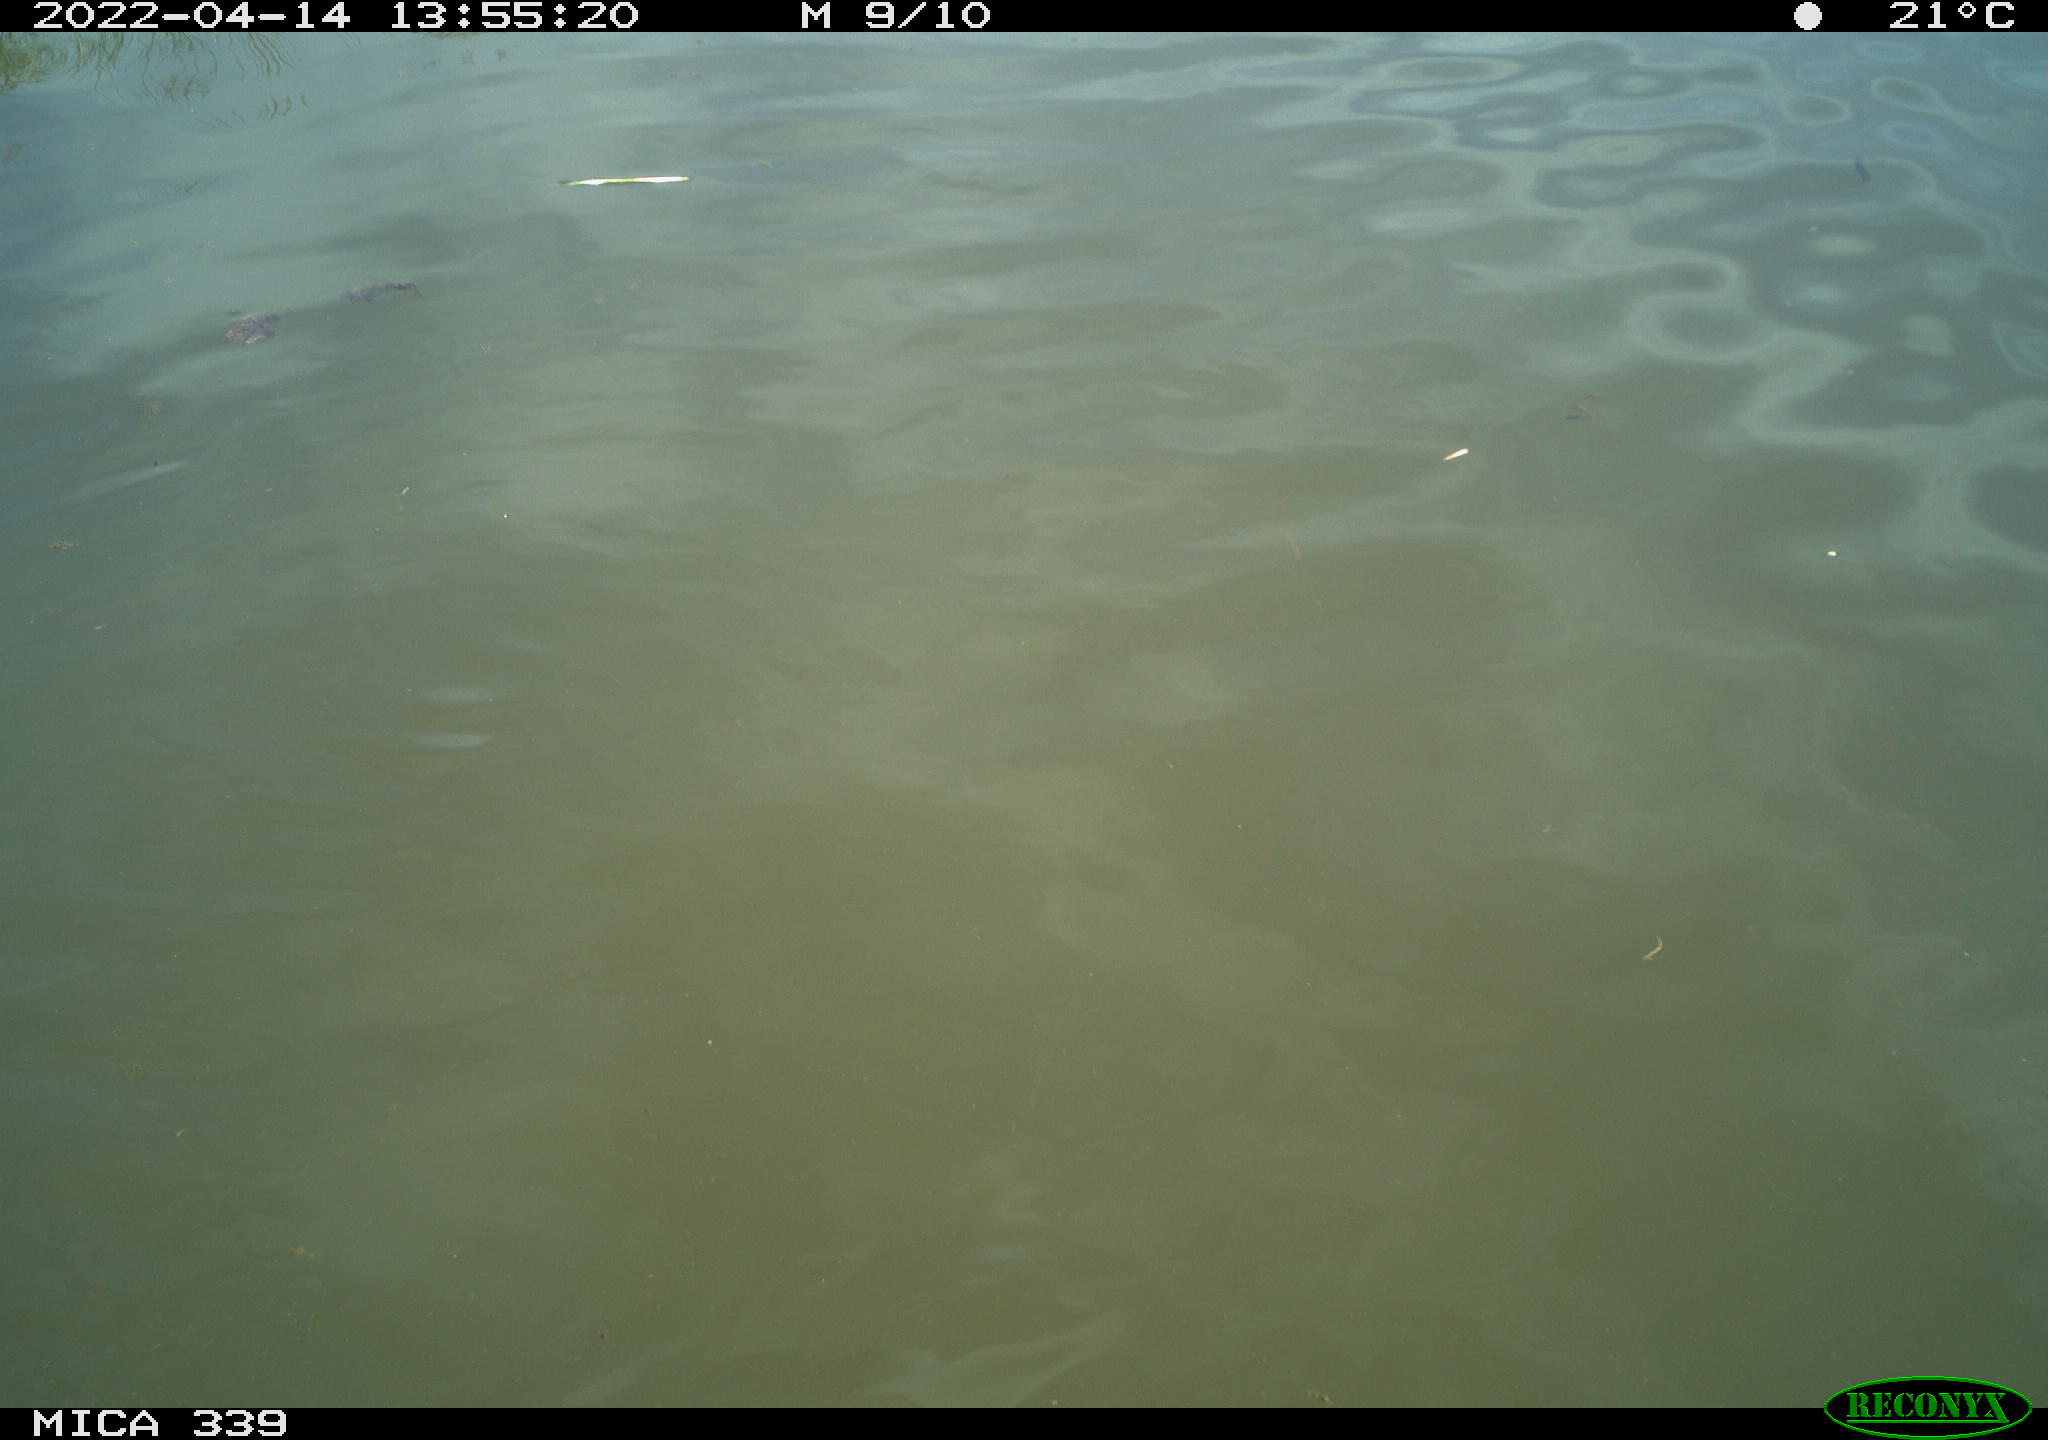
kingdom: Animalia
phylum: Chordata
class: Aves
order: Gruiformes
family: Rallidae
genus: Fulica
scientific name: Fulica atra
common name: Eurasian coot
